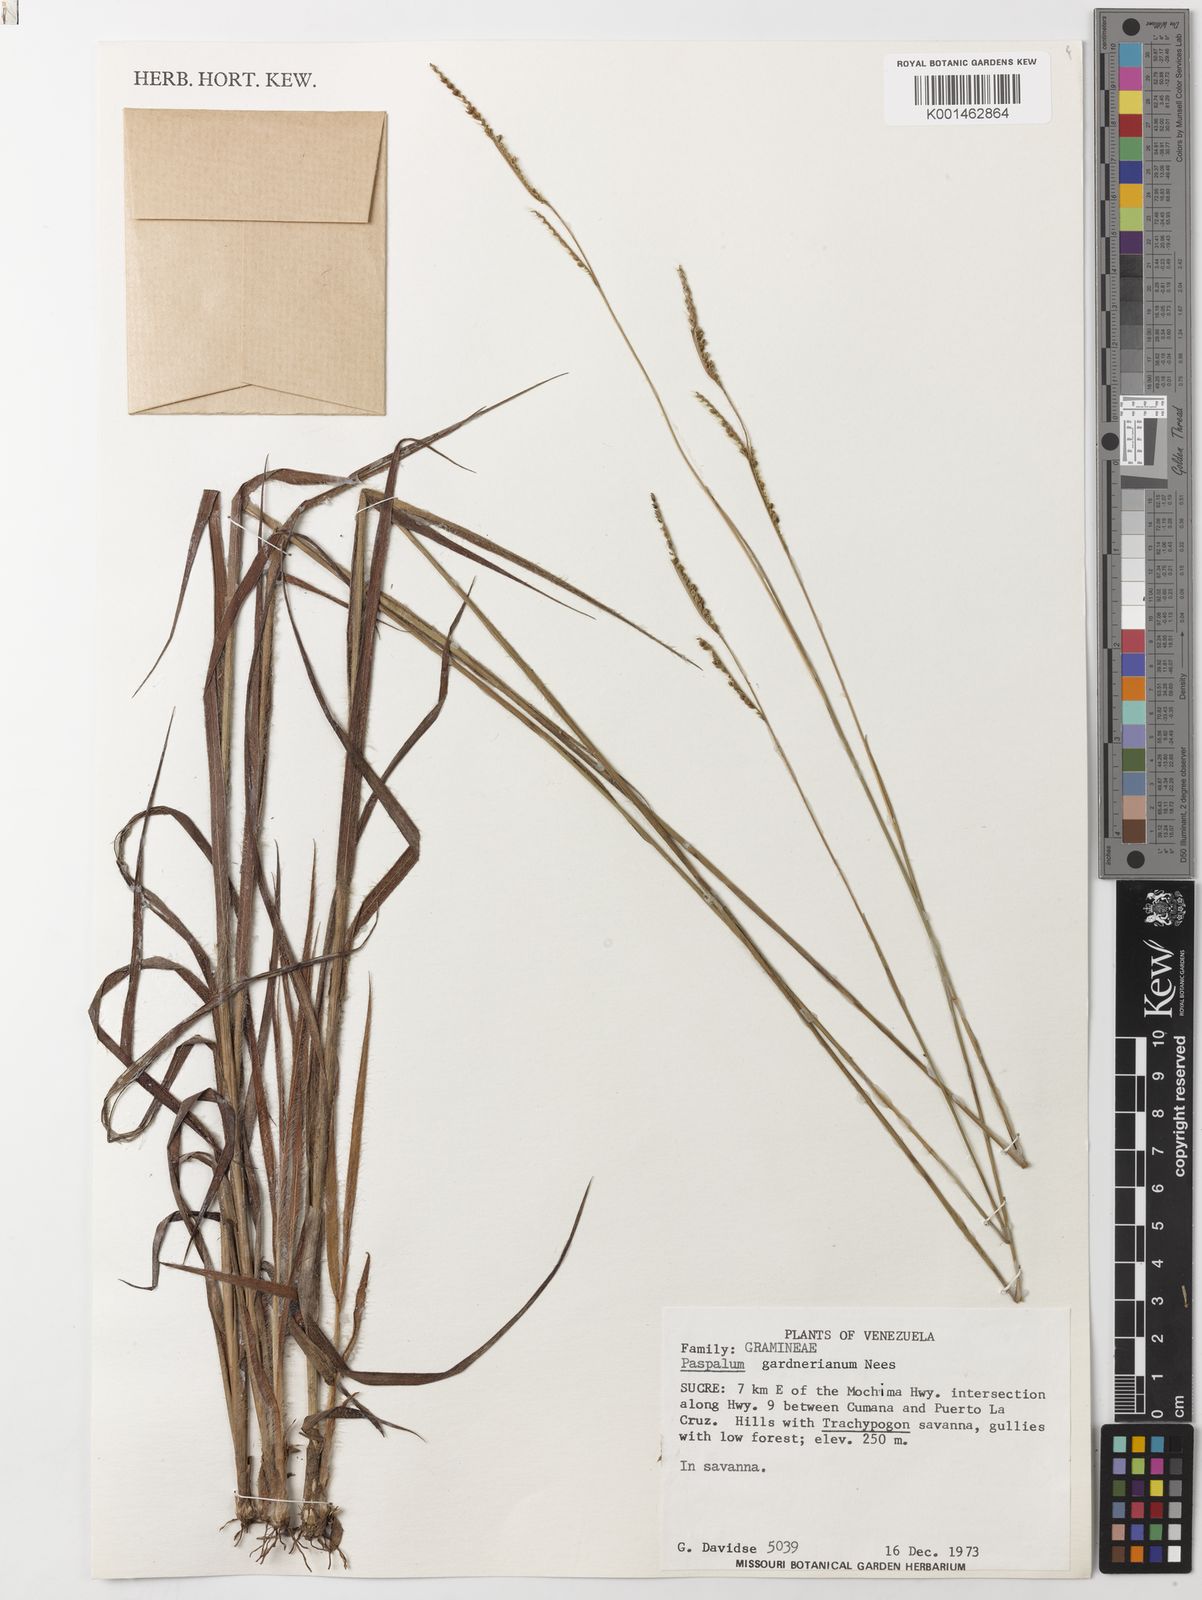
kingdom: Plantae
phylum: Tracheophyta
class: Liliopsida
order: Poales
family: Poaceae
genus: Paspalum
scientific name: Paspalum gardnerianum
